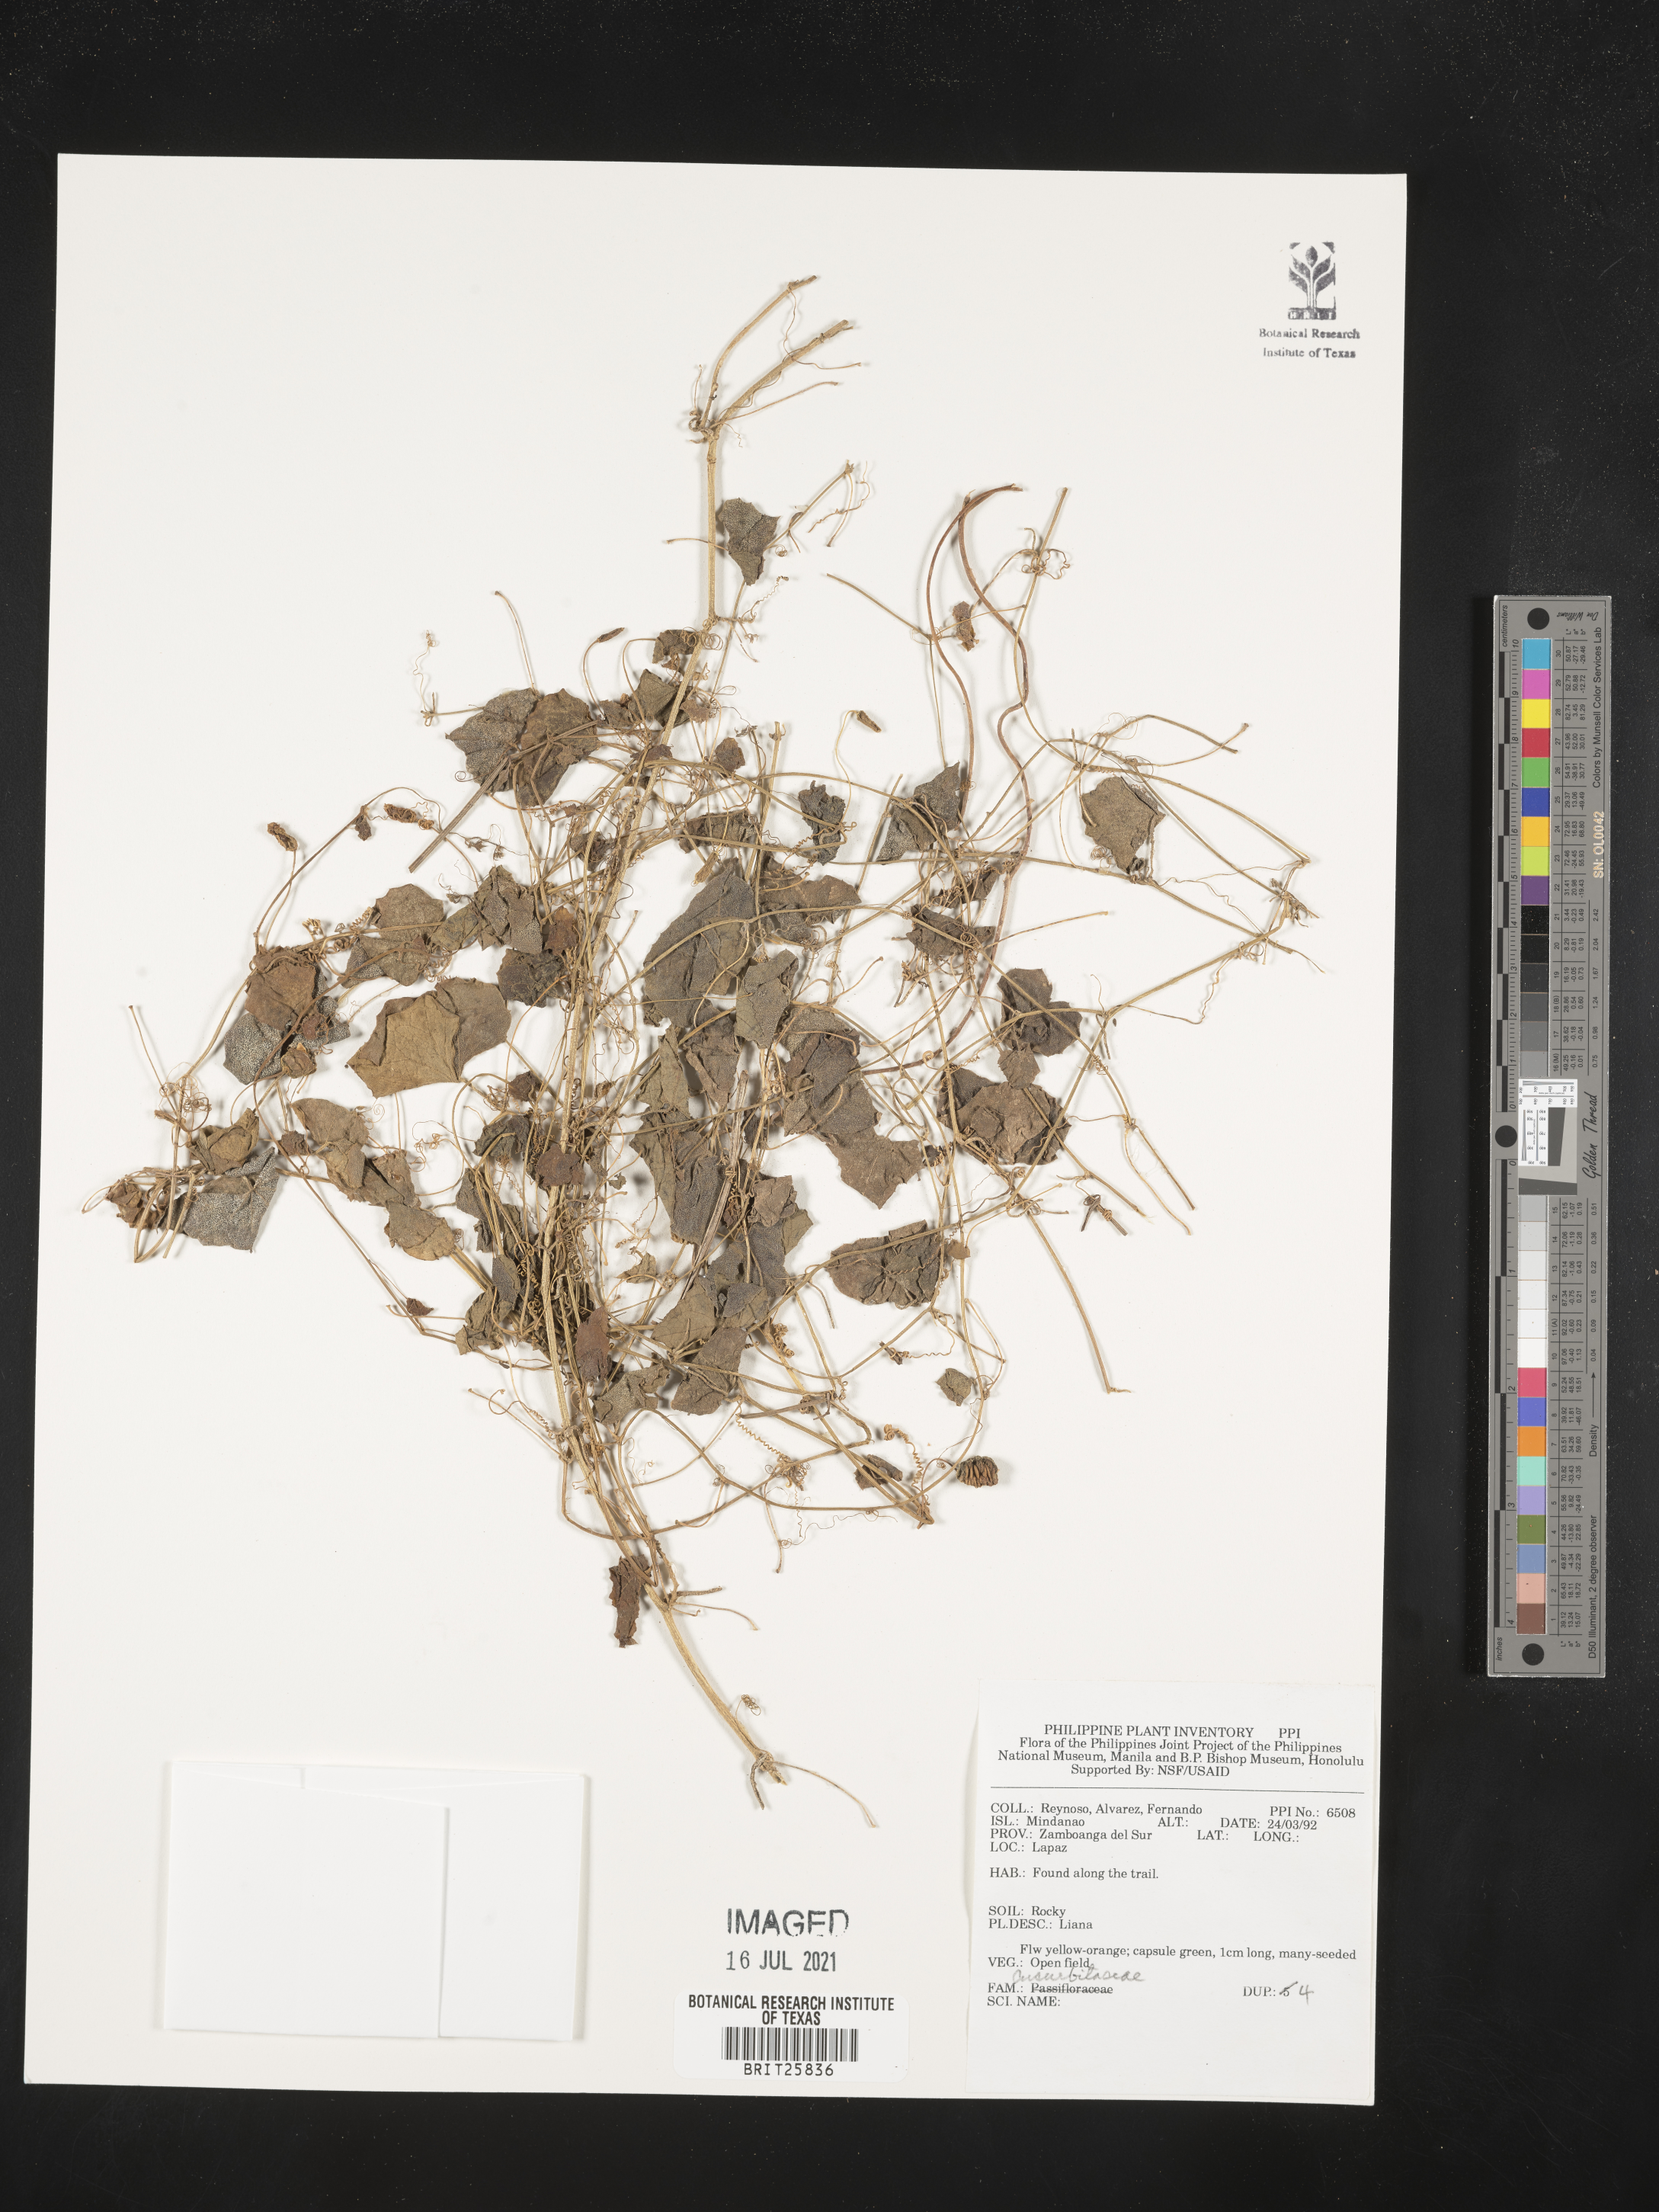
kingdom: Plantae
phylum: Tracheophyta
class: Magnoliopsida
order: Cucurbitales
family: Cucurbitaceae
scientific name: Cucurbitaceae
